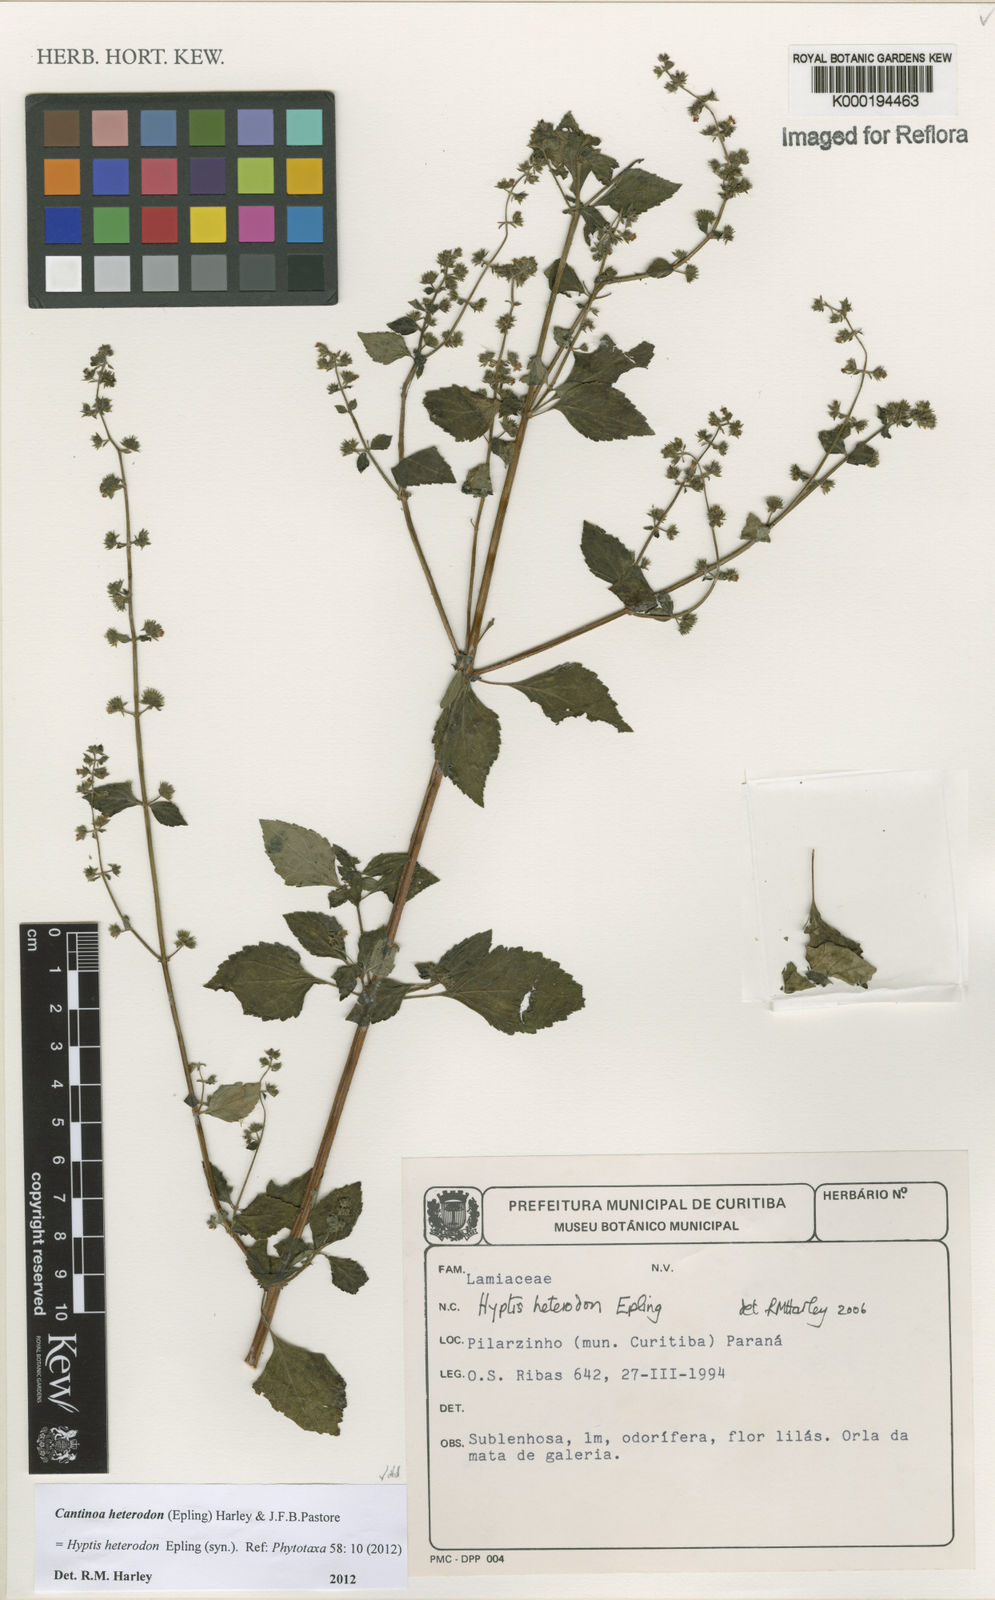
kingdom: Plantae
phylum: Tracheophyta
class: Magnoliopsida
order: Lamiales
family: Lamiaceae
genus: Cantinoa
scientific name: Cantinoa heterodon
